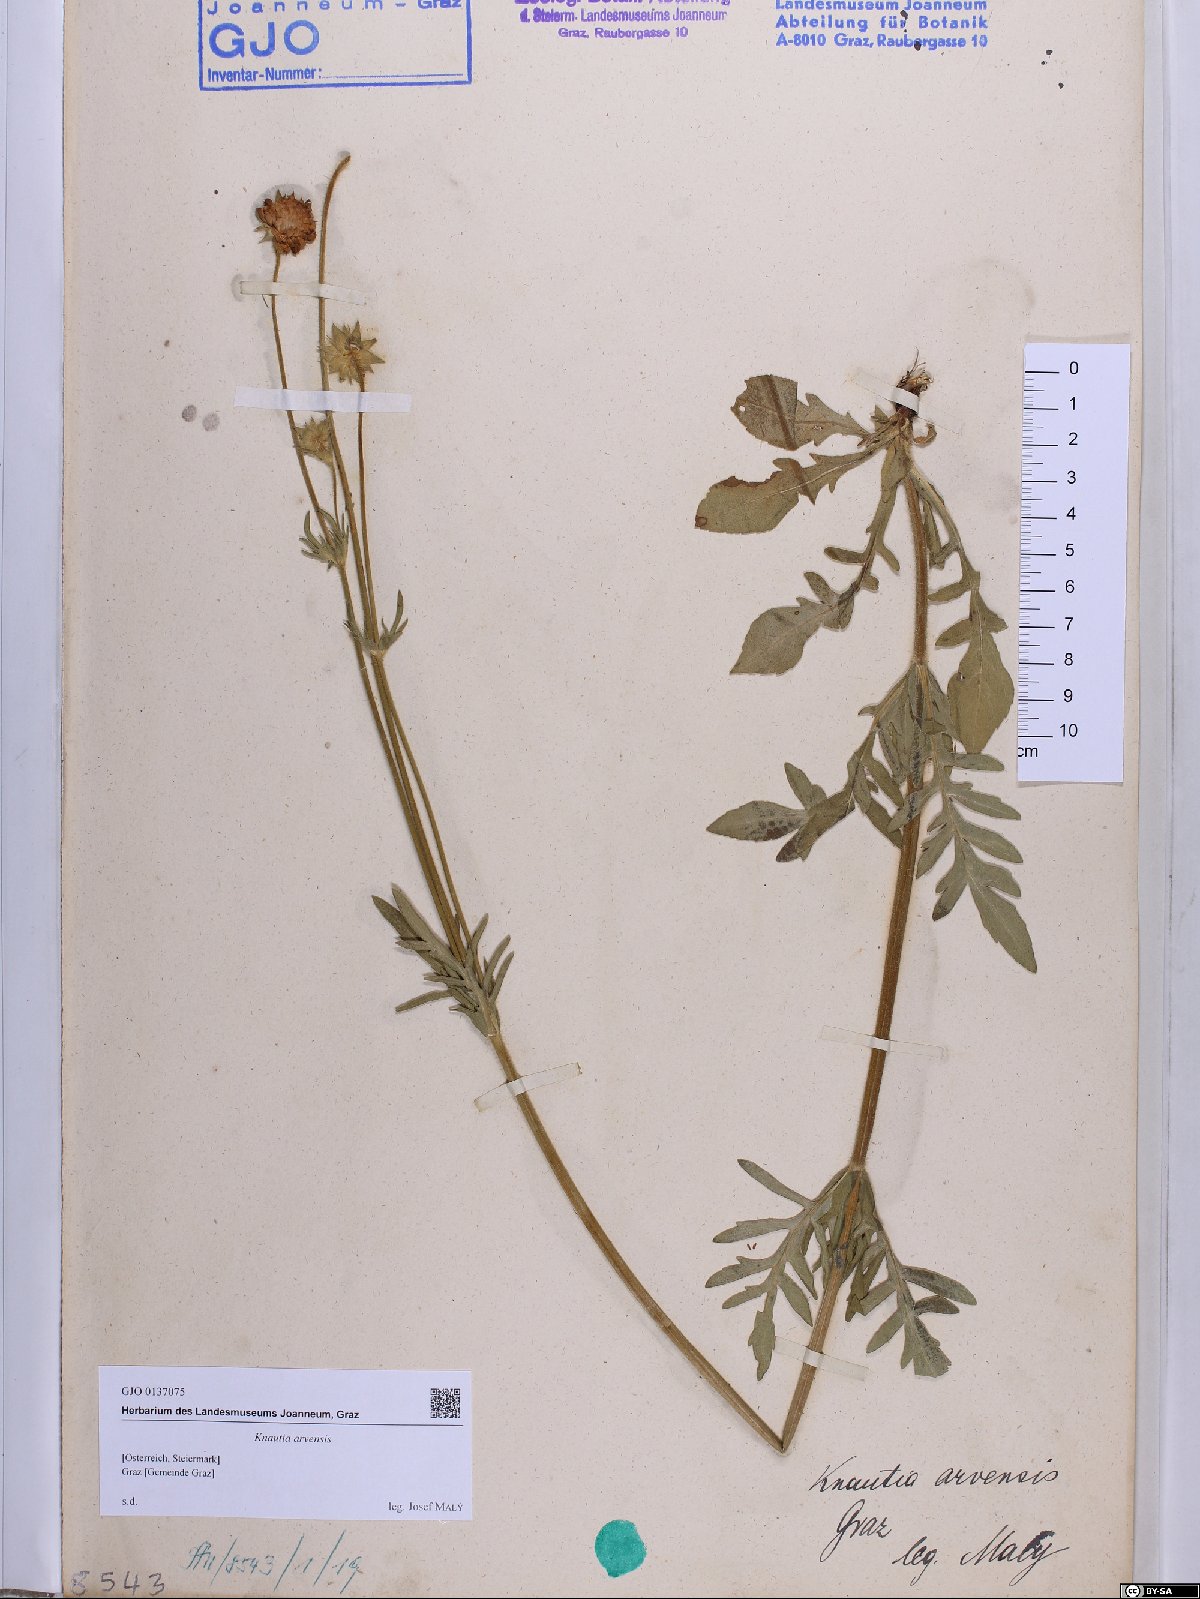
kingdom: Plantae
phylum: Tracheophyta
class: Magnoliopsida
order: Dipsacales
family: Caprifoliaceae
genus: Knautia
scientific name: Knautia arvensis
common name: Field scabiosa
